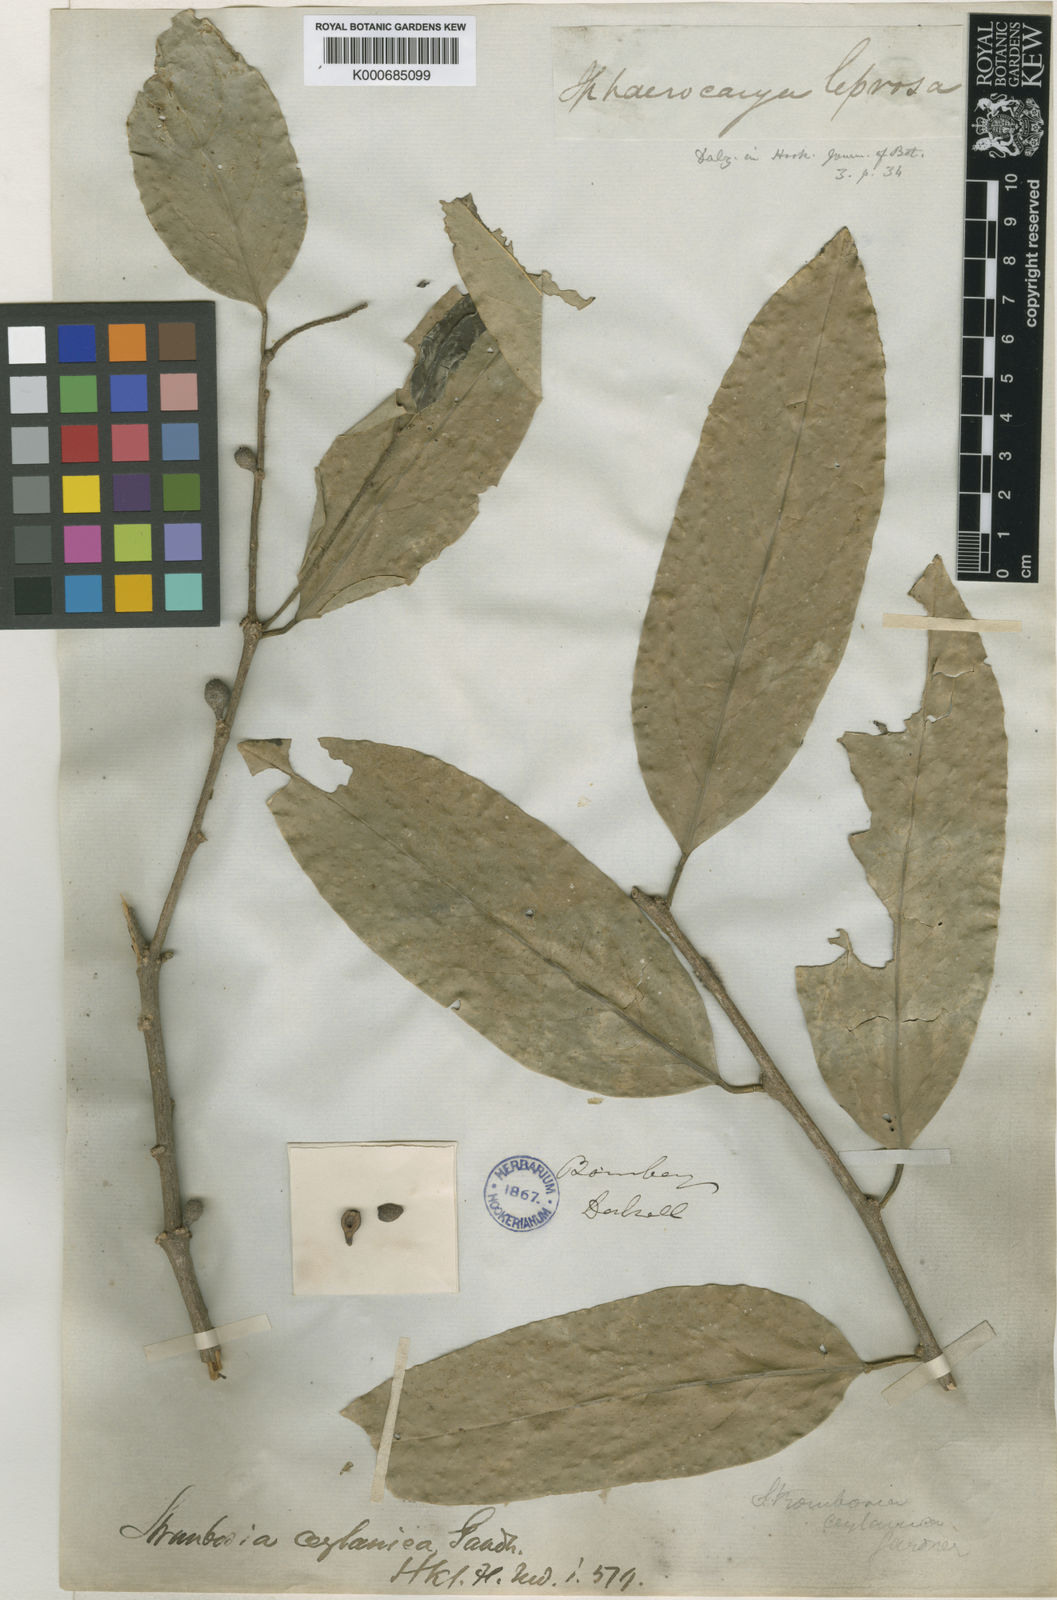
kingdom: Plantae
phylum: Tracheophyta
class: Magnoliopsida
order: Santalales
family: Strombosiaceae
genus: Strombosia
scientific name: Strombosia ceylanica
